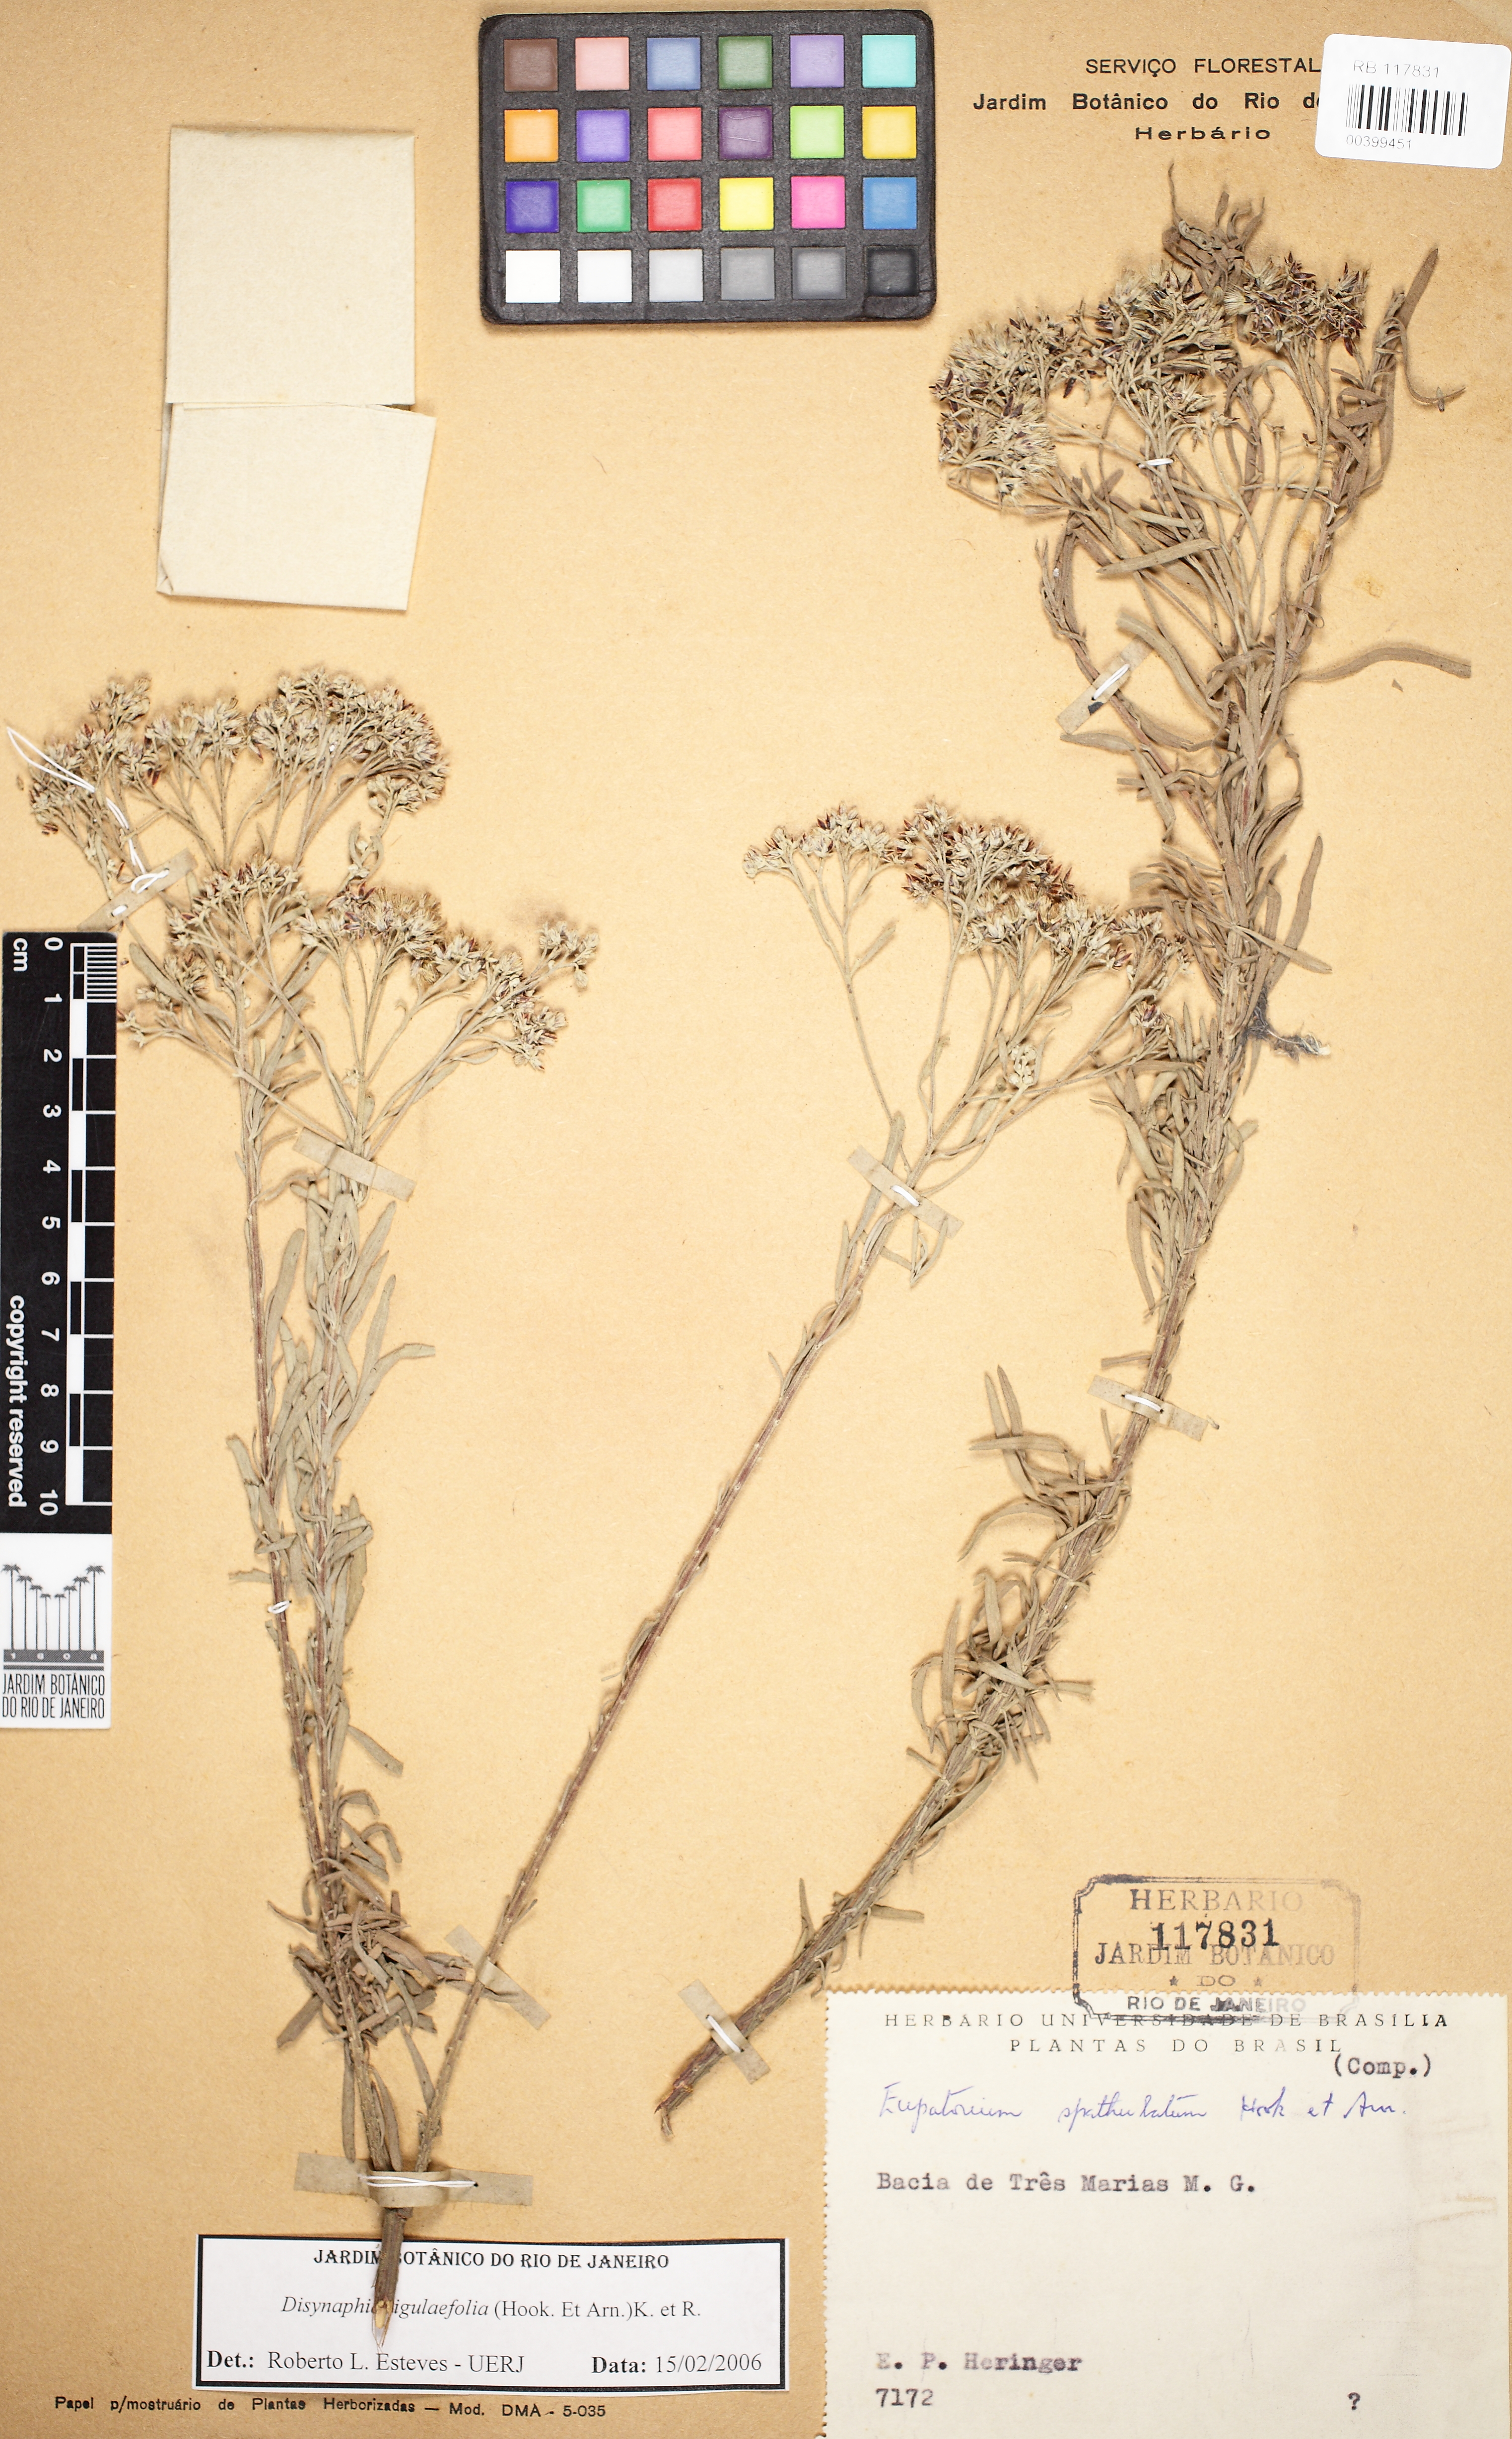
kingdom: Plantae
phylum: Tracheophyta
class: Magnoliopsida
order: Asterales
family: Asteraceae
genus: Disynaphia
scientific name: Disynaphia ligulifolia
